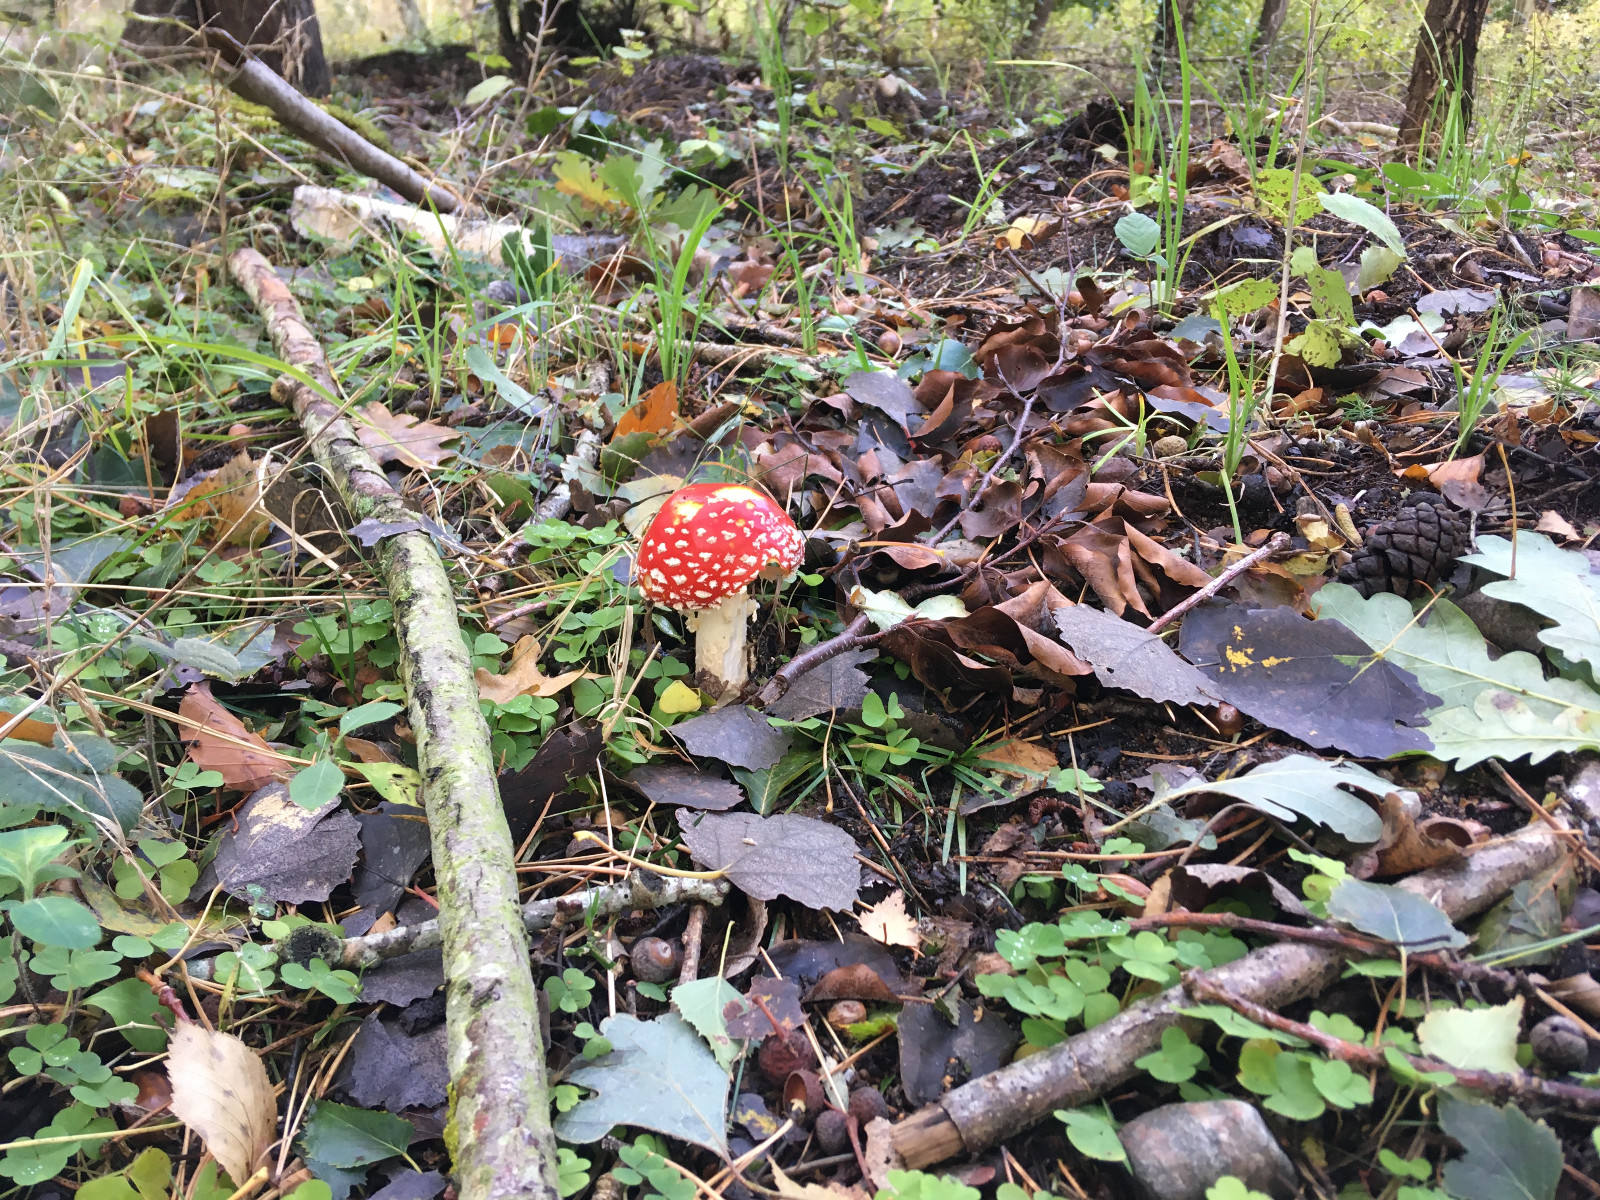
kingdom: Fungi
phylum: Basidiomycota
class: Agaricomycetes
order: Agaricales
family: Amanitaceae
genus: Amanita
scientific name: Amanita muscaria
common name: rød fluesvamp
